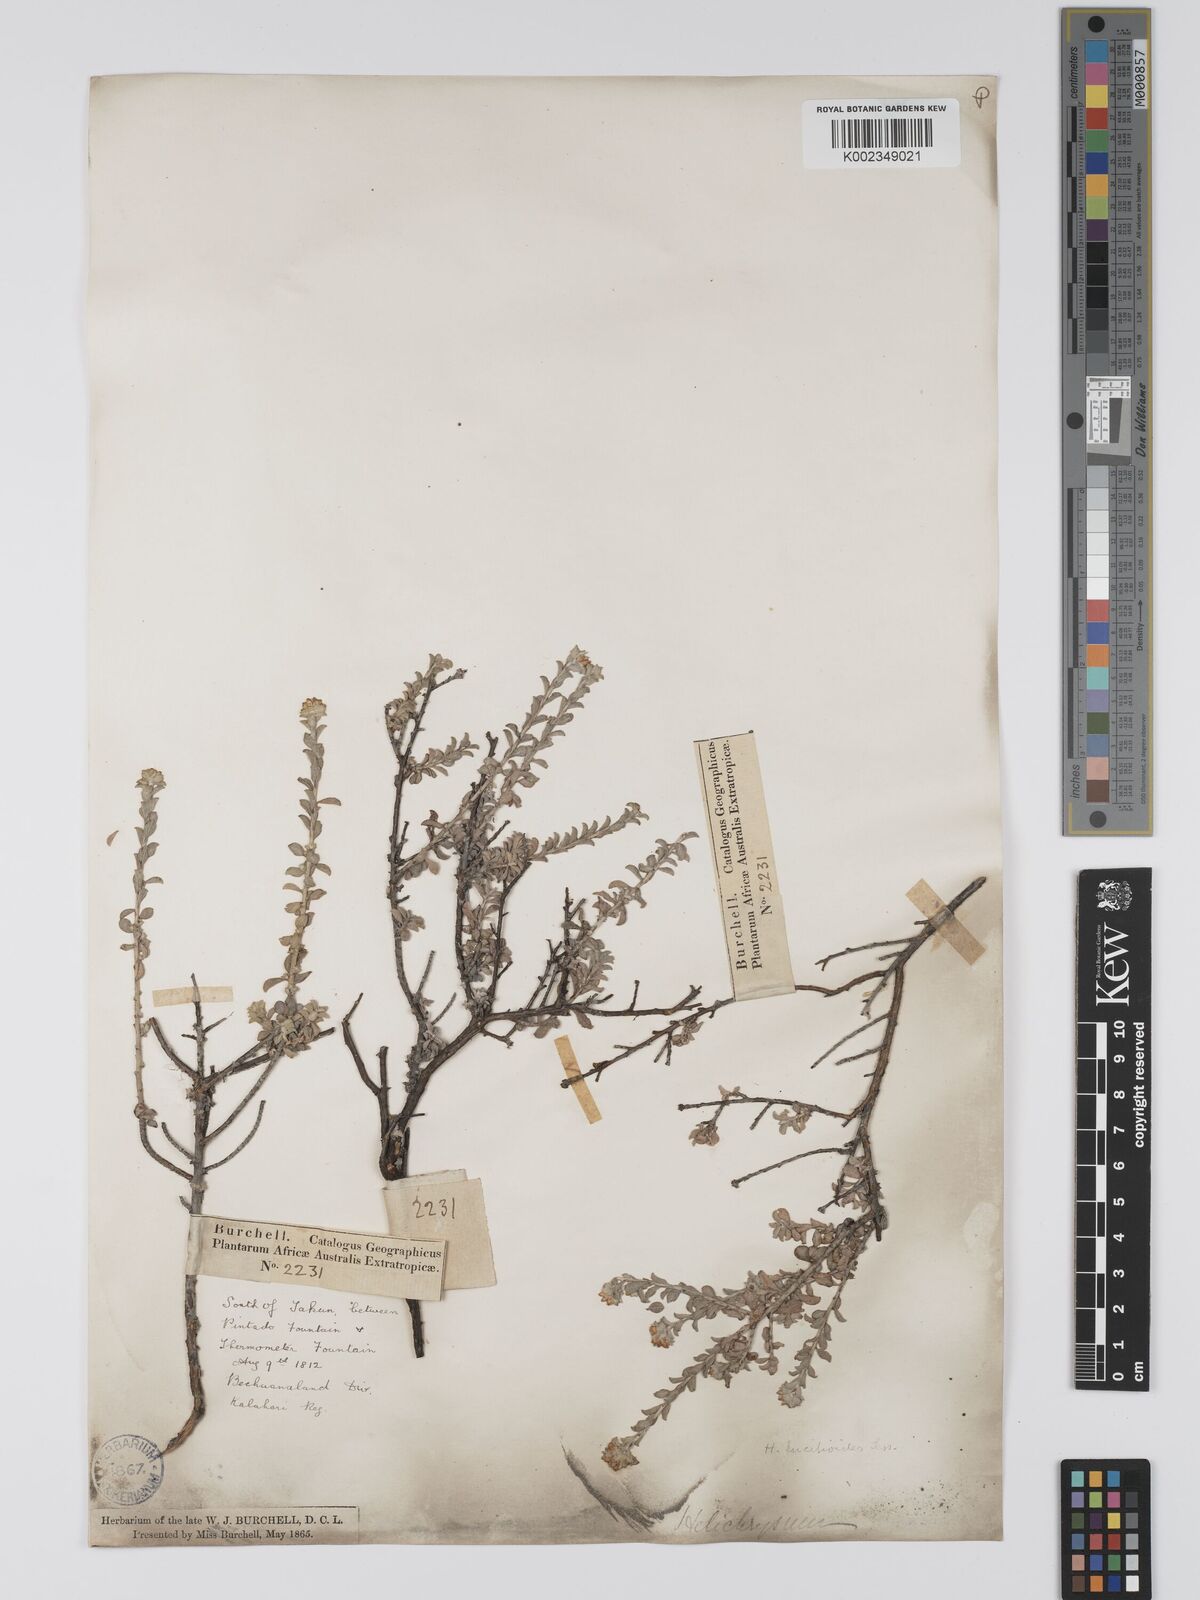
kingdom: Plantae
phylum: Tracheophyta
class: Magnoliopsida
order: Asterales
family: Asteraceae
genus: Helichrysum
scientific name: Helichrysum lucilioides
